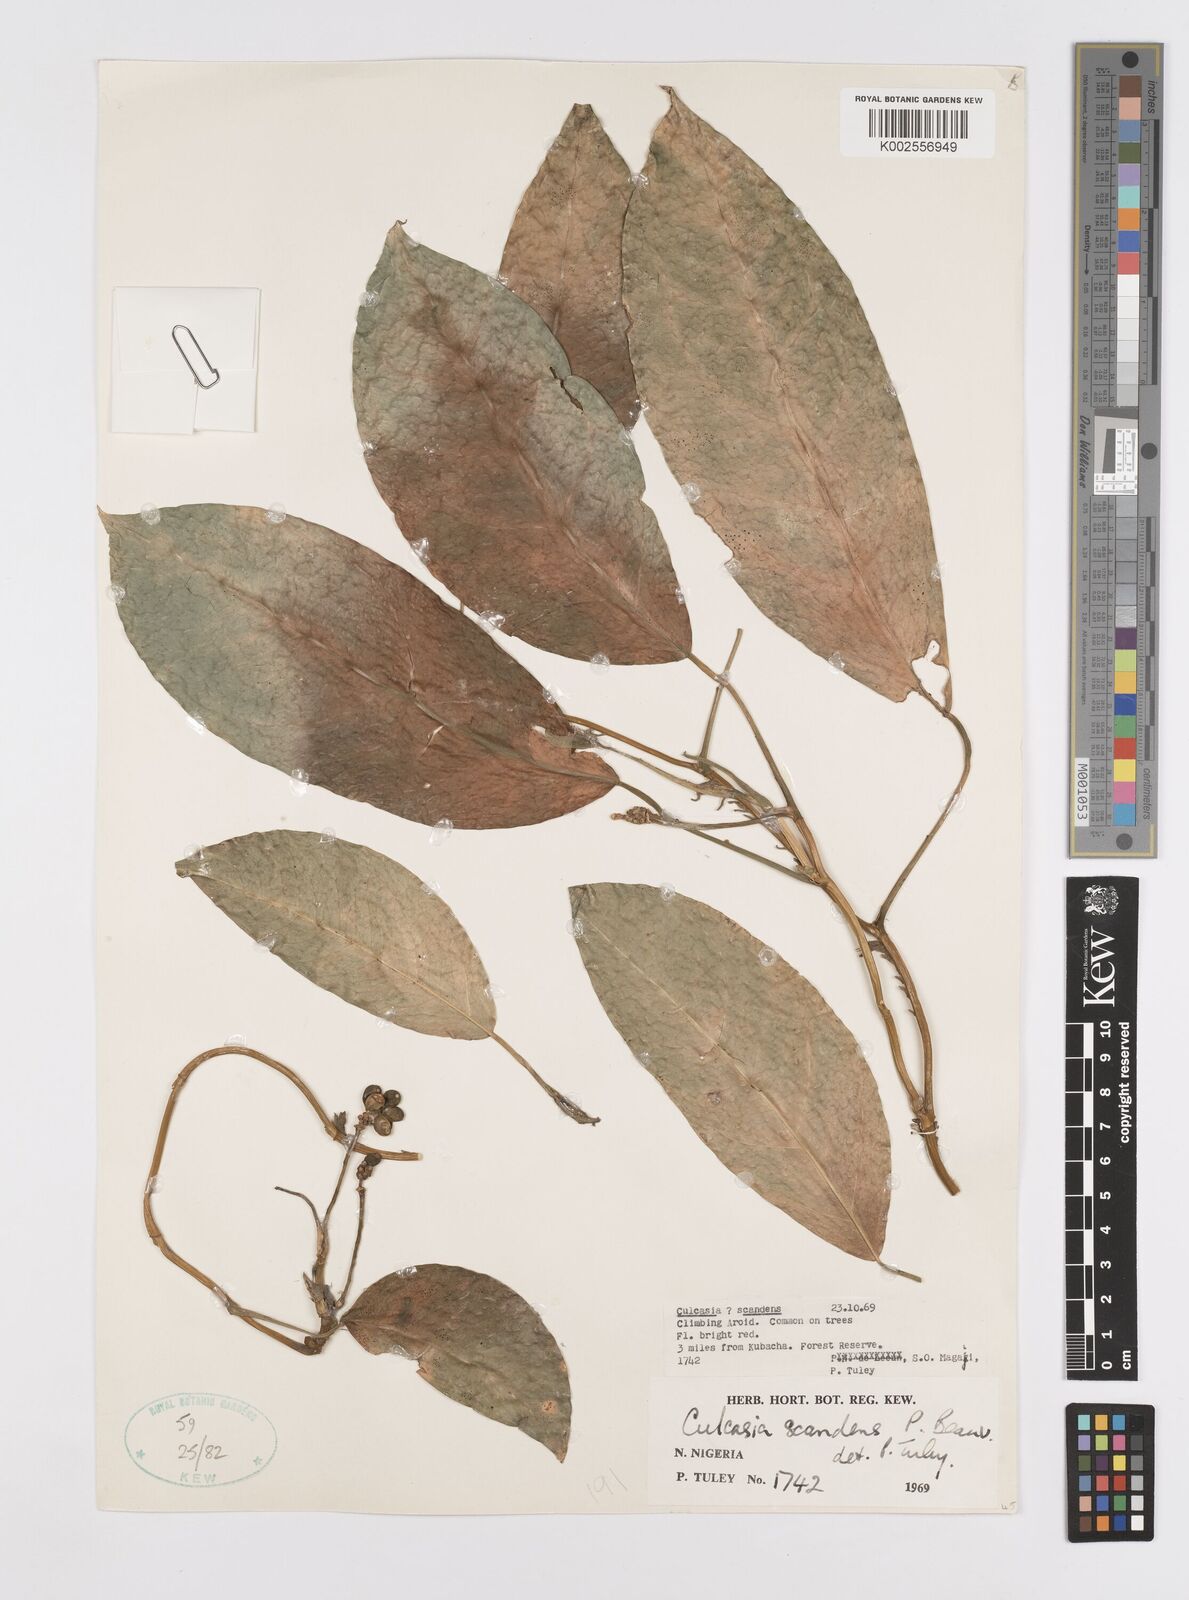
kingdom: Plantae
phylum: Tracheophyta
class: Liliopsida
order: Alismatales
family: Araceae
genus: Culcasia
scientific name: Culcasia scandens
